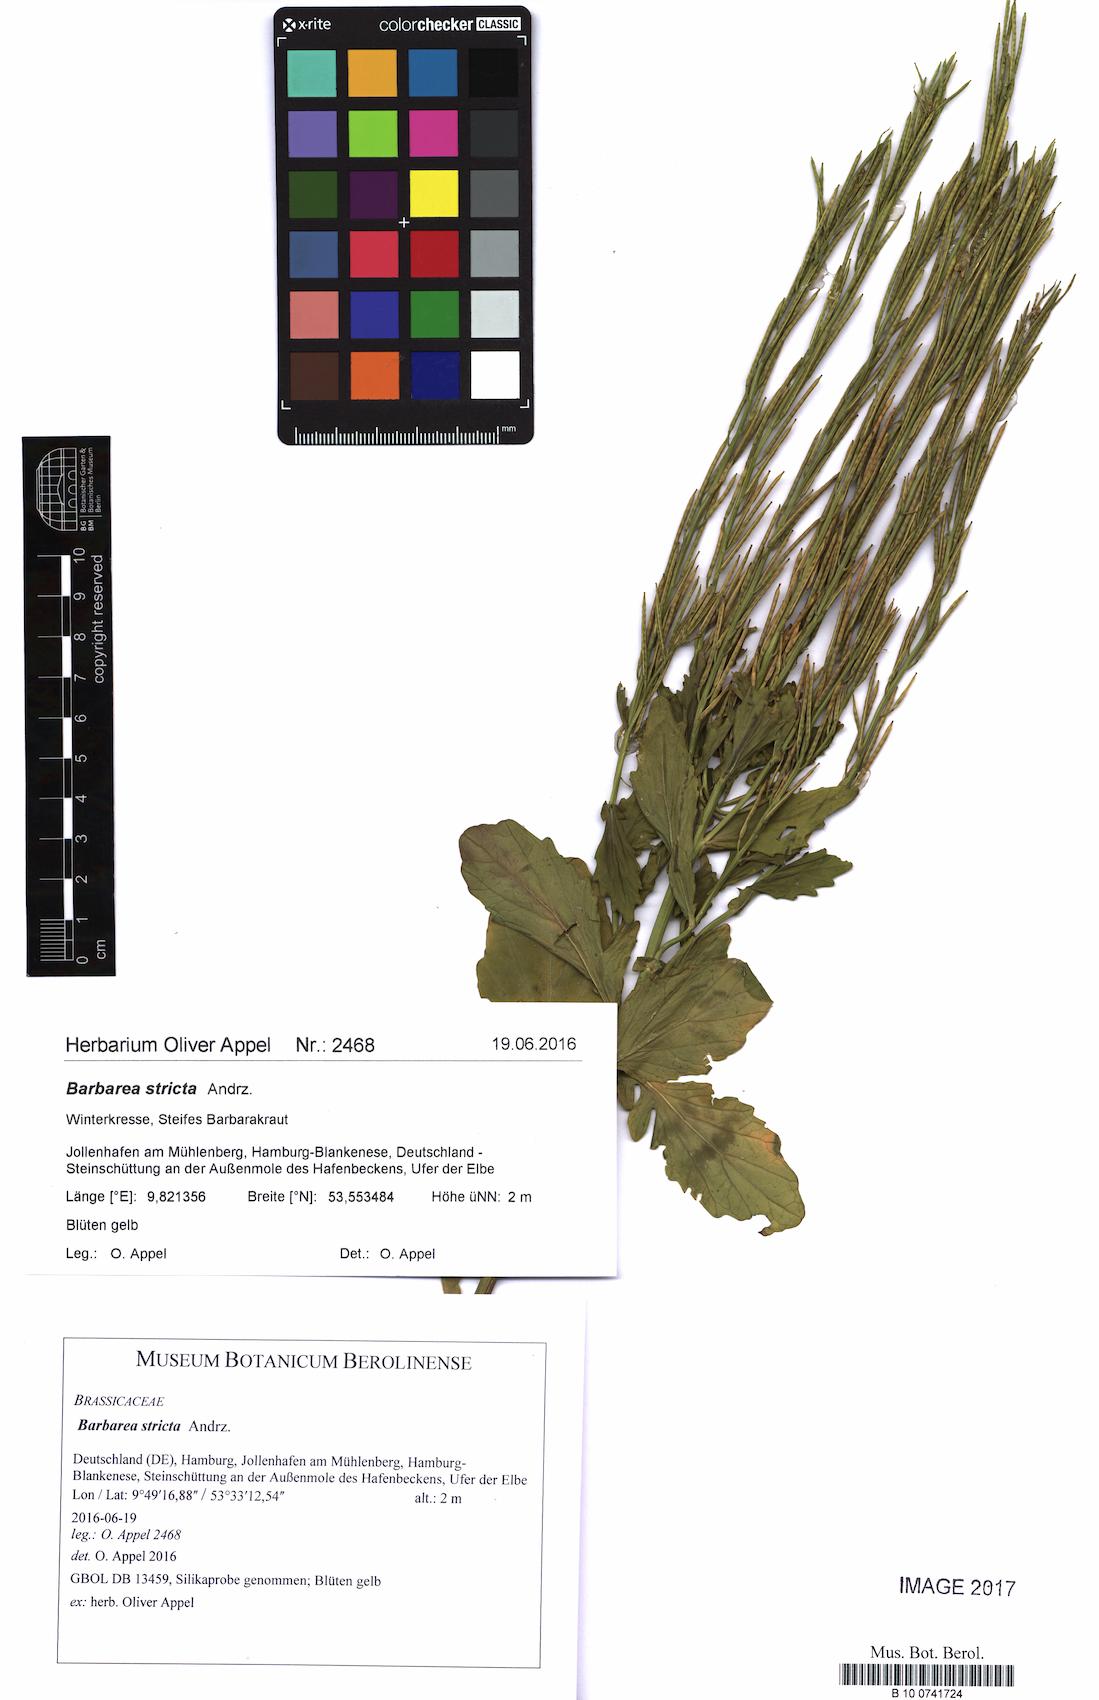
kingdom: Plantae
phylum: Tracheophyta
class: Magnoliopsida
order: Brassicales
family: Brassicaceae
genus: Barbarea
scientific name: Barbarea stricta
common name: Small-flowered winter-cress
